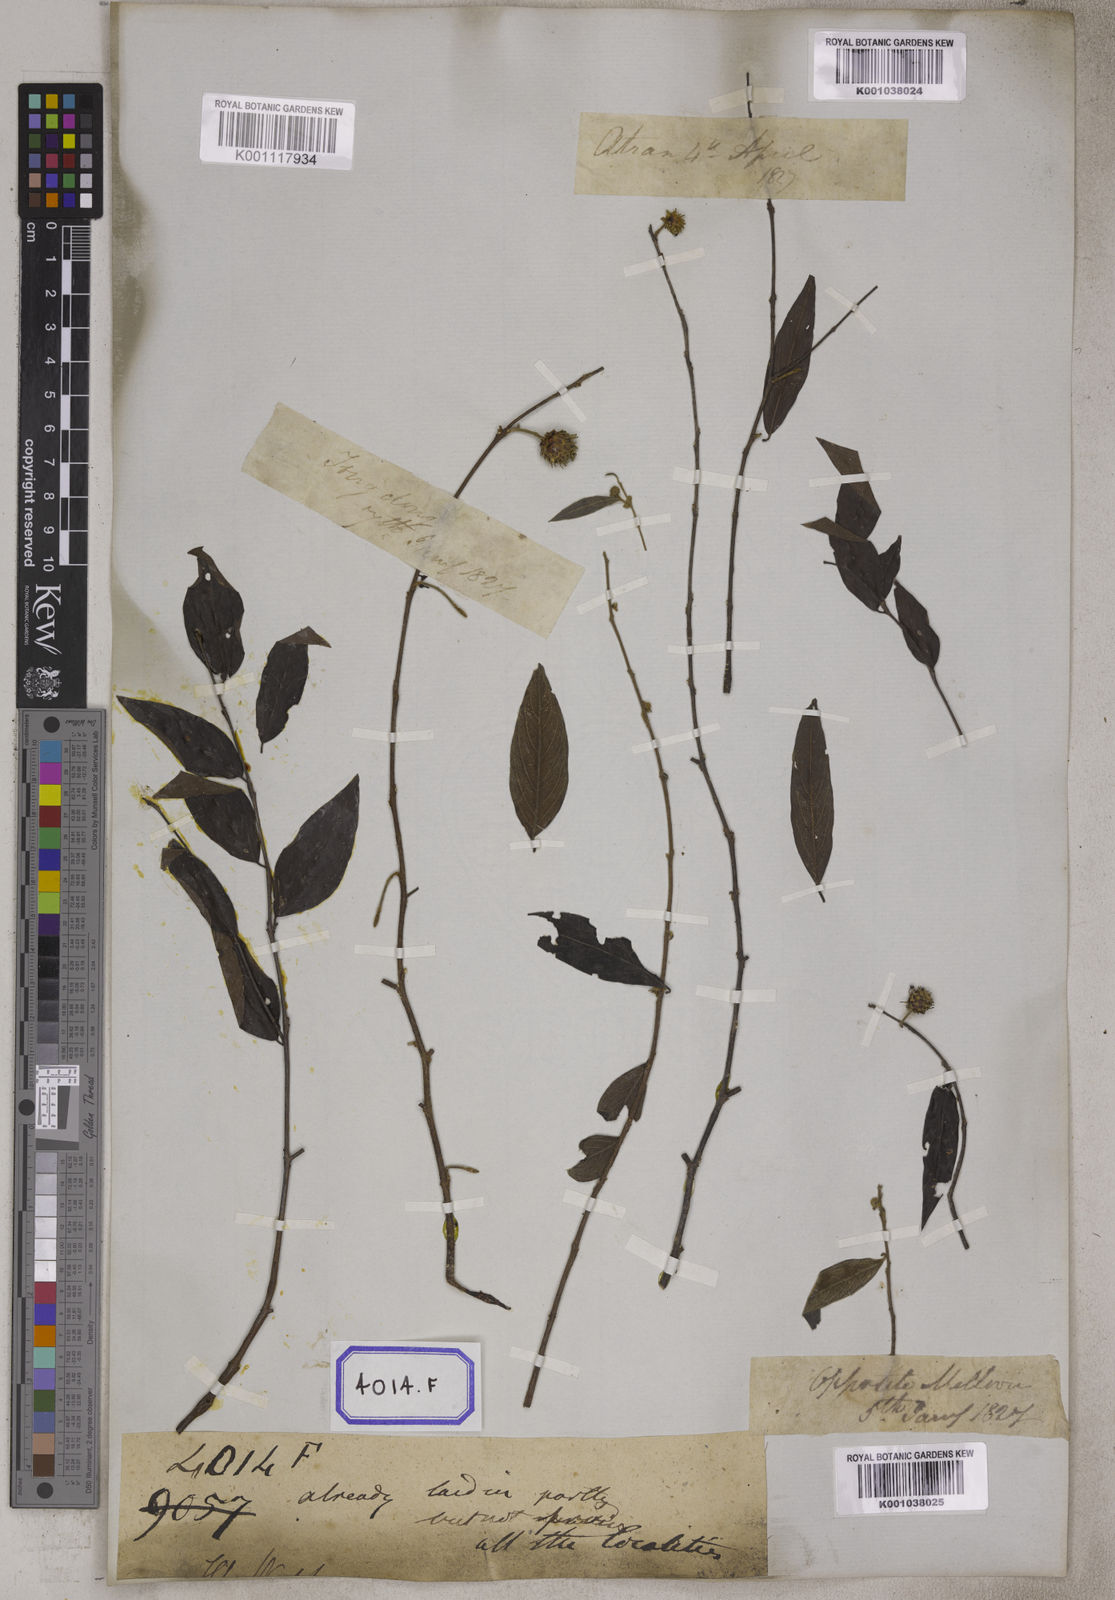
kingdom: Plantae
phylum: Tracheophyta
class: Magnoliopsida
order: Myrtales
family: Combretaceae
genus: Anogeissus
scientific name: Anogeissus
